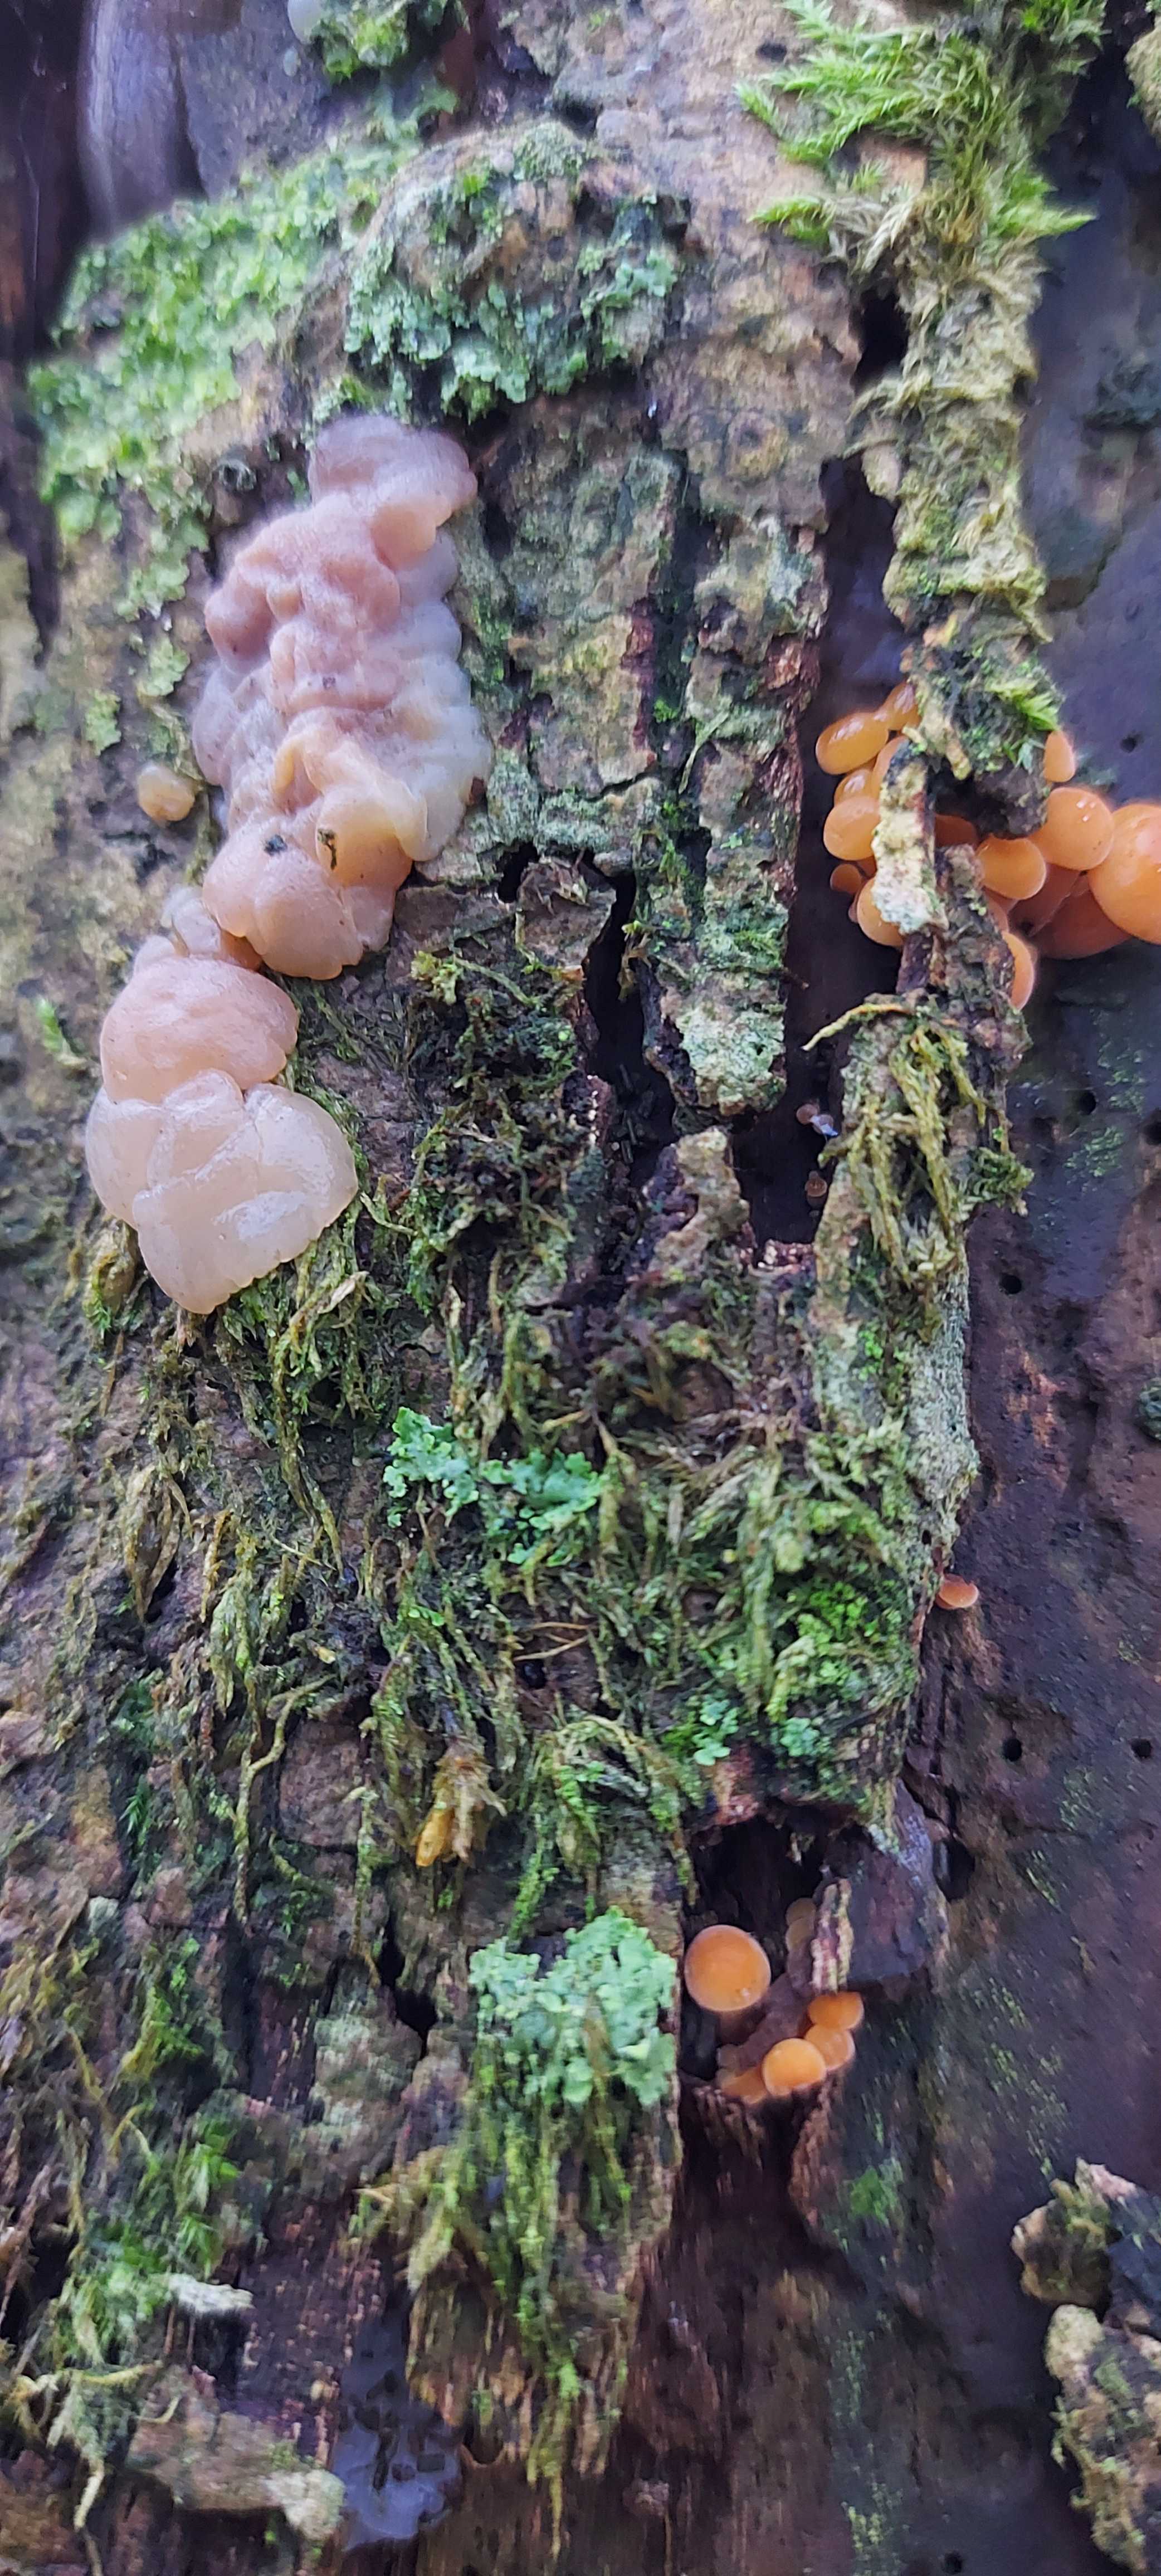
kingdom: Fungi
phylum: Basidiomycota
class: Tremellomycetes
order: Tremellales
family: Exidiaceae
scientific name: Exidiaceae
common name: bævretopfamilien
